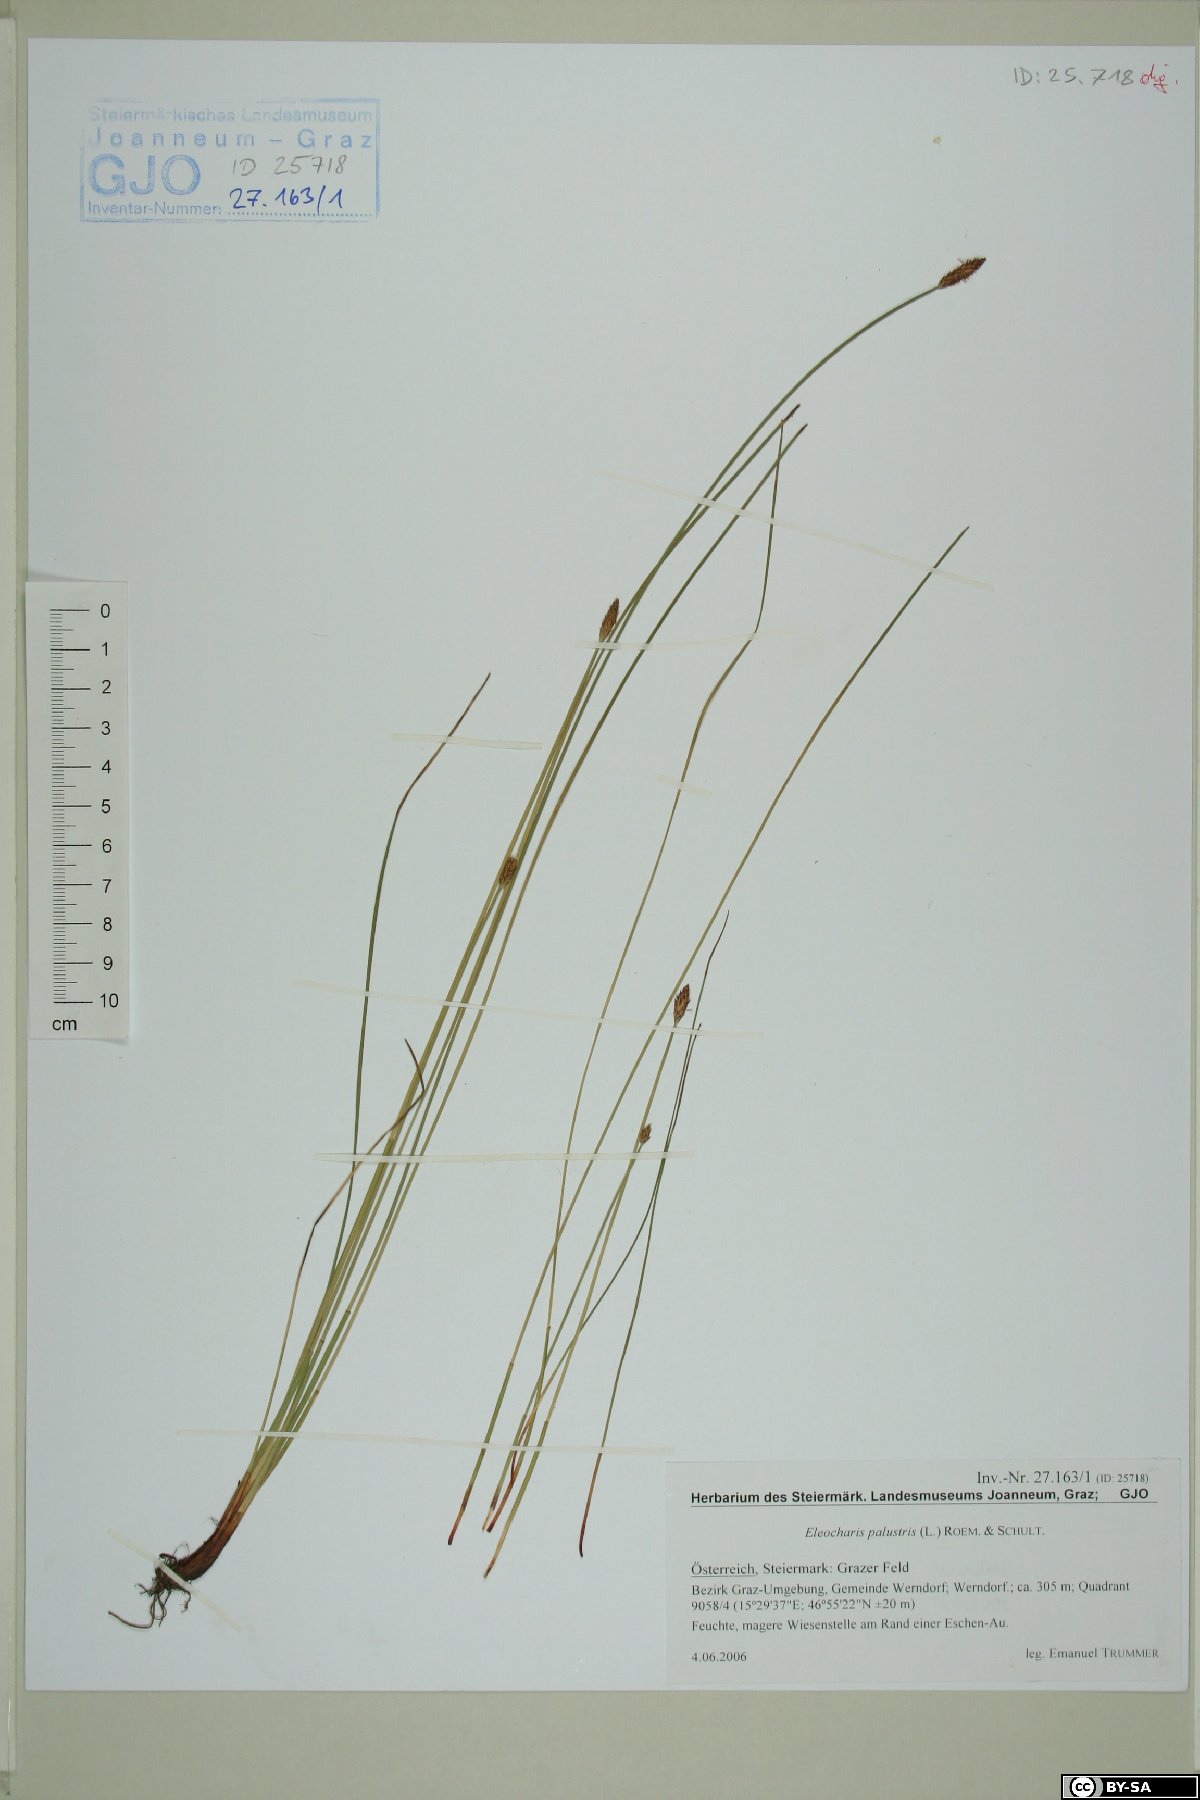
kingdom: Plantae
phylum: Tracheophyta
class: Liliopsida
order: Poales
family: Cyperaceae
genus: Eleocharis
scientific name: Eleocharis palustris
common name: Common spike-rush
